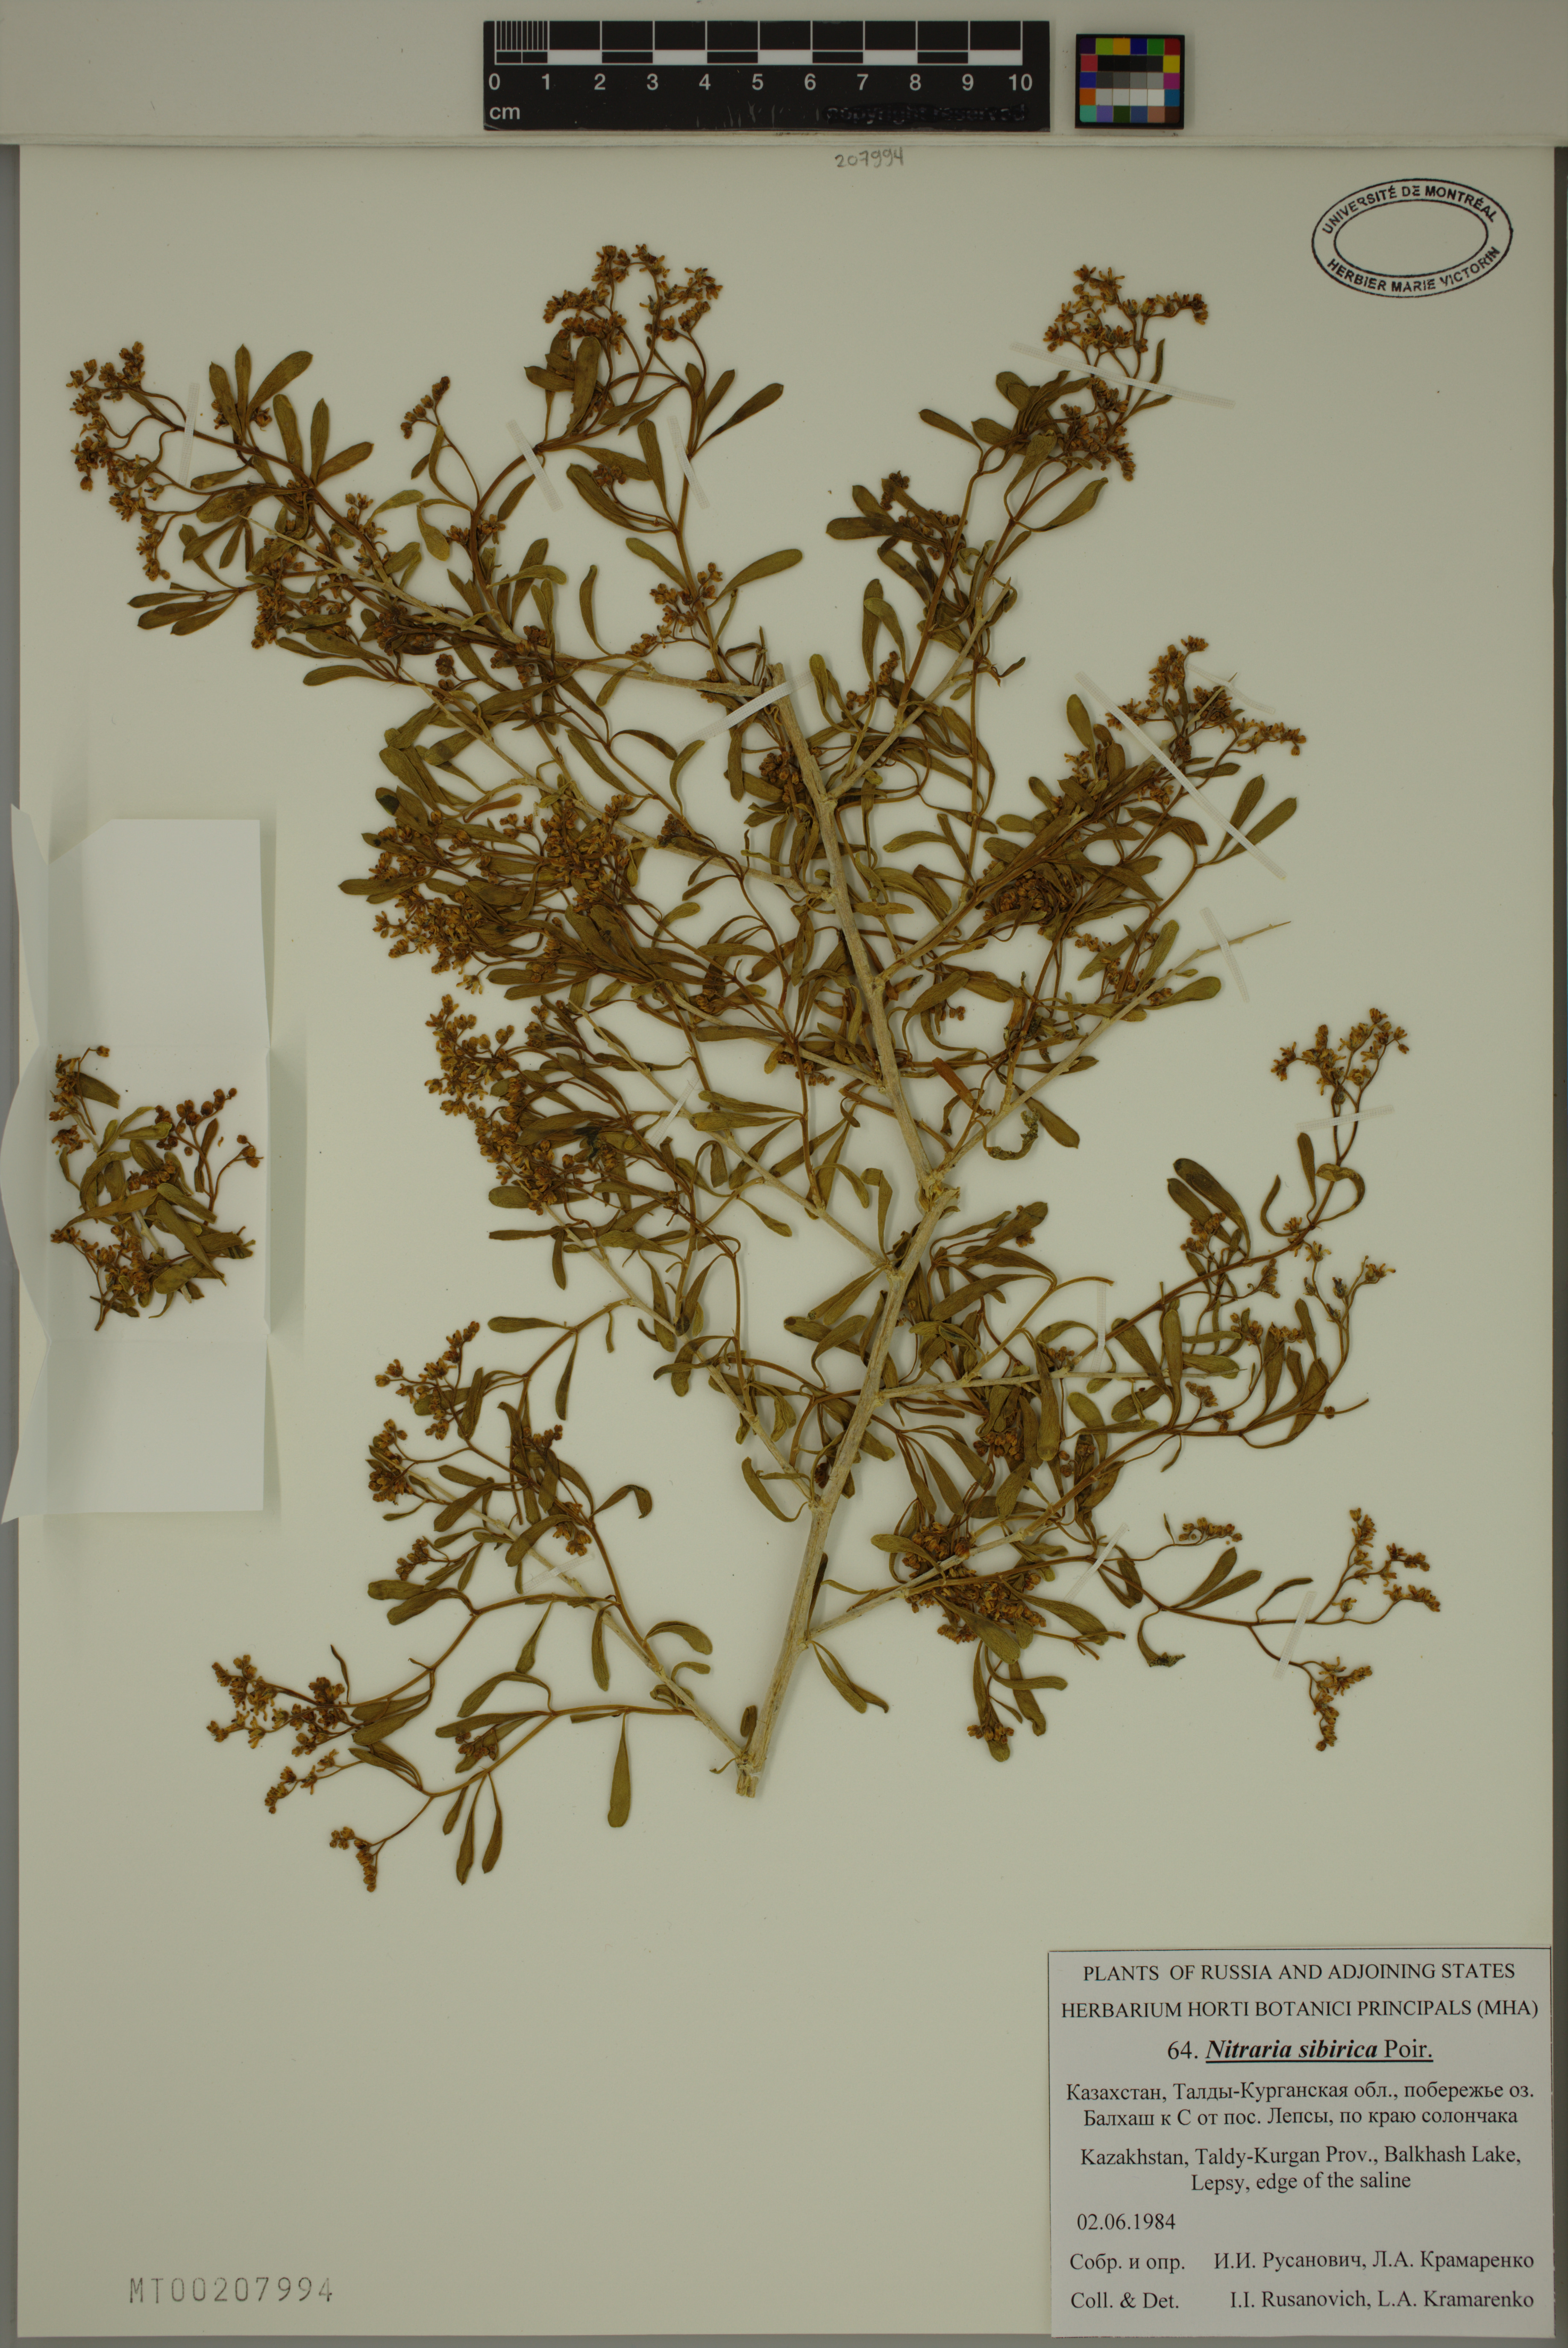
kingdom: Plantae
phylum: Tracheophyta
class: Magnoliopsida
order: Sapindales
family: Nitrariaceae
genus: Nitraria
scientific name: Nitraria sibirica
